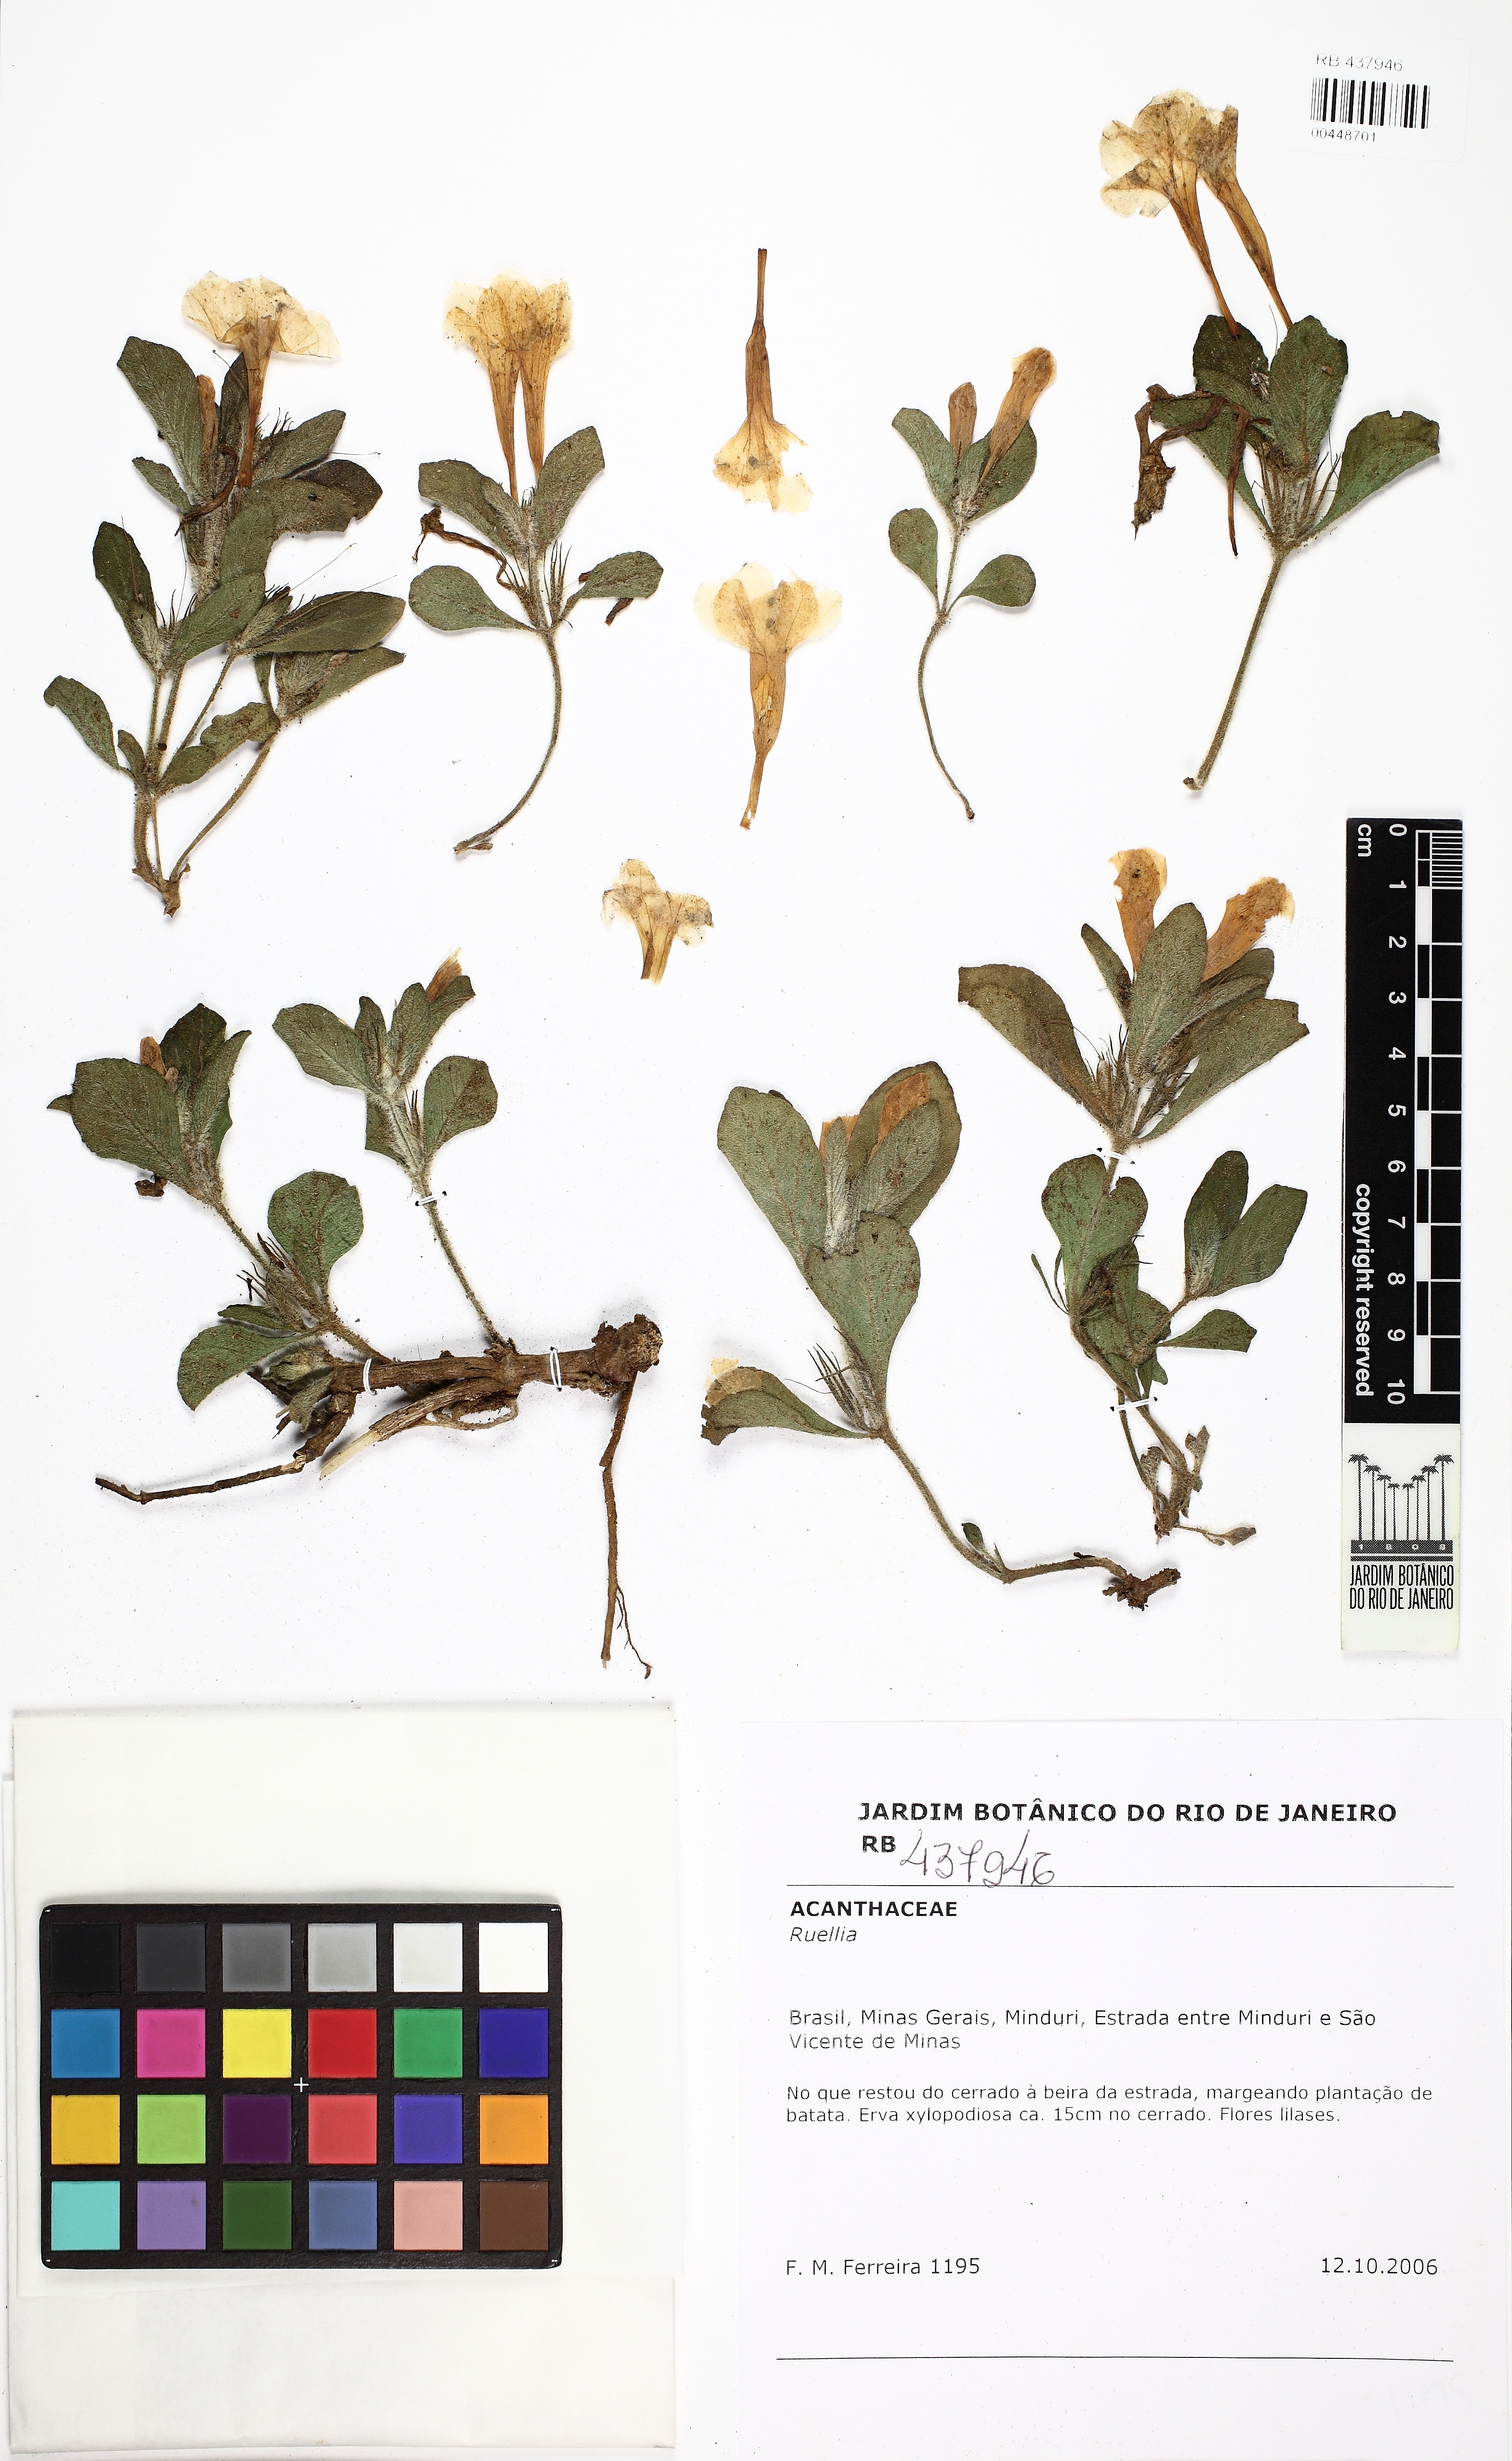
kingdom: Plantae
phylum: Tracheophyta
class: Magnoliopsida
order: Lamiales
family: Acanthaceae
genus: Ruellia
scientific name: Ruellia
